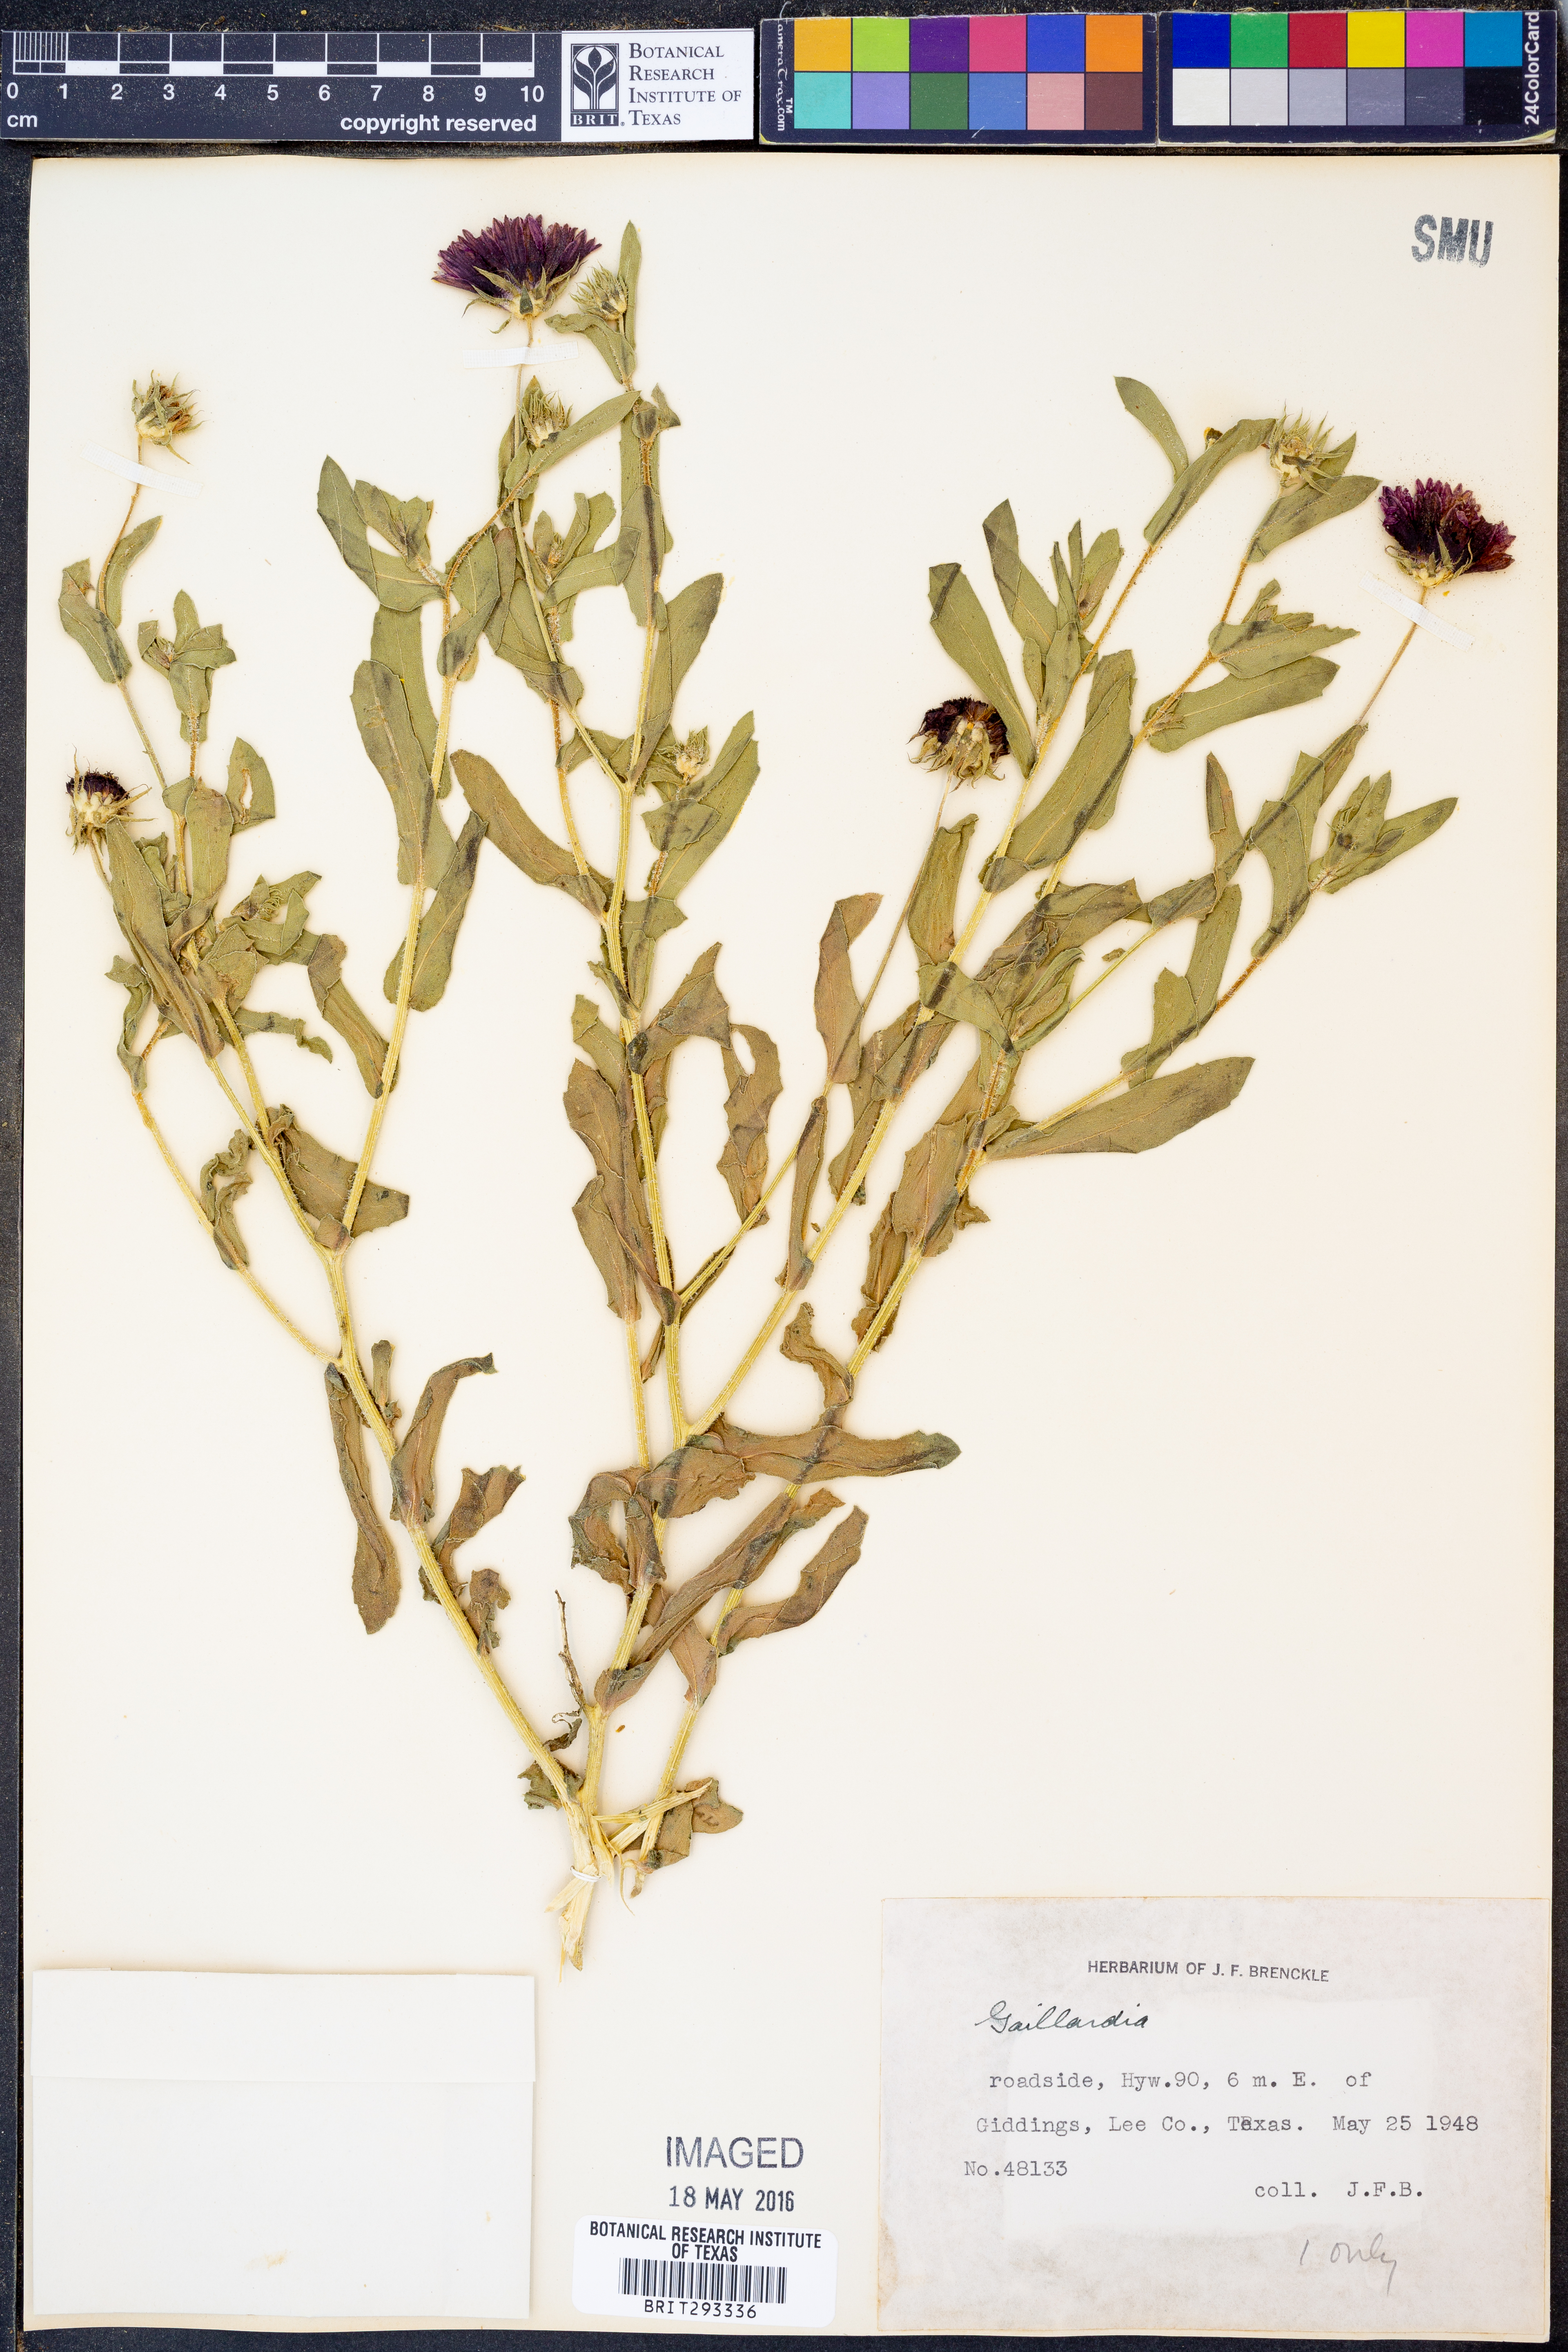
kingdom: Plantae
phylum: Tracheophyta
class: Magnoliopsida
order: Asterales
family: Asteraceae
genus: Gaillardia
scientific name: Gaillardia
